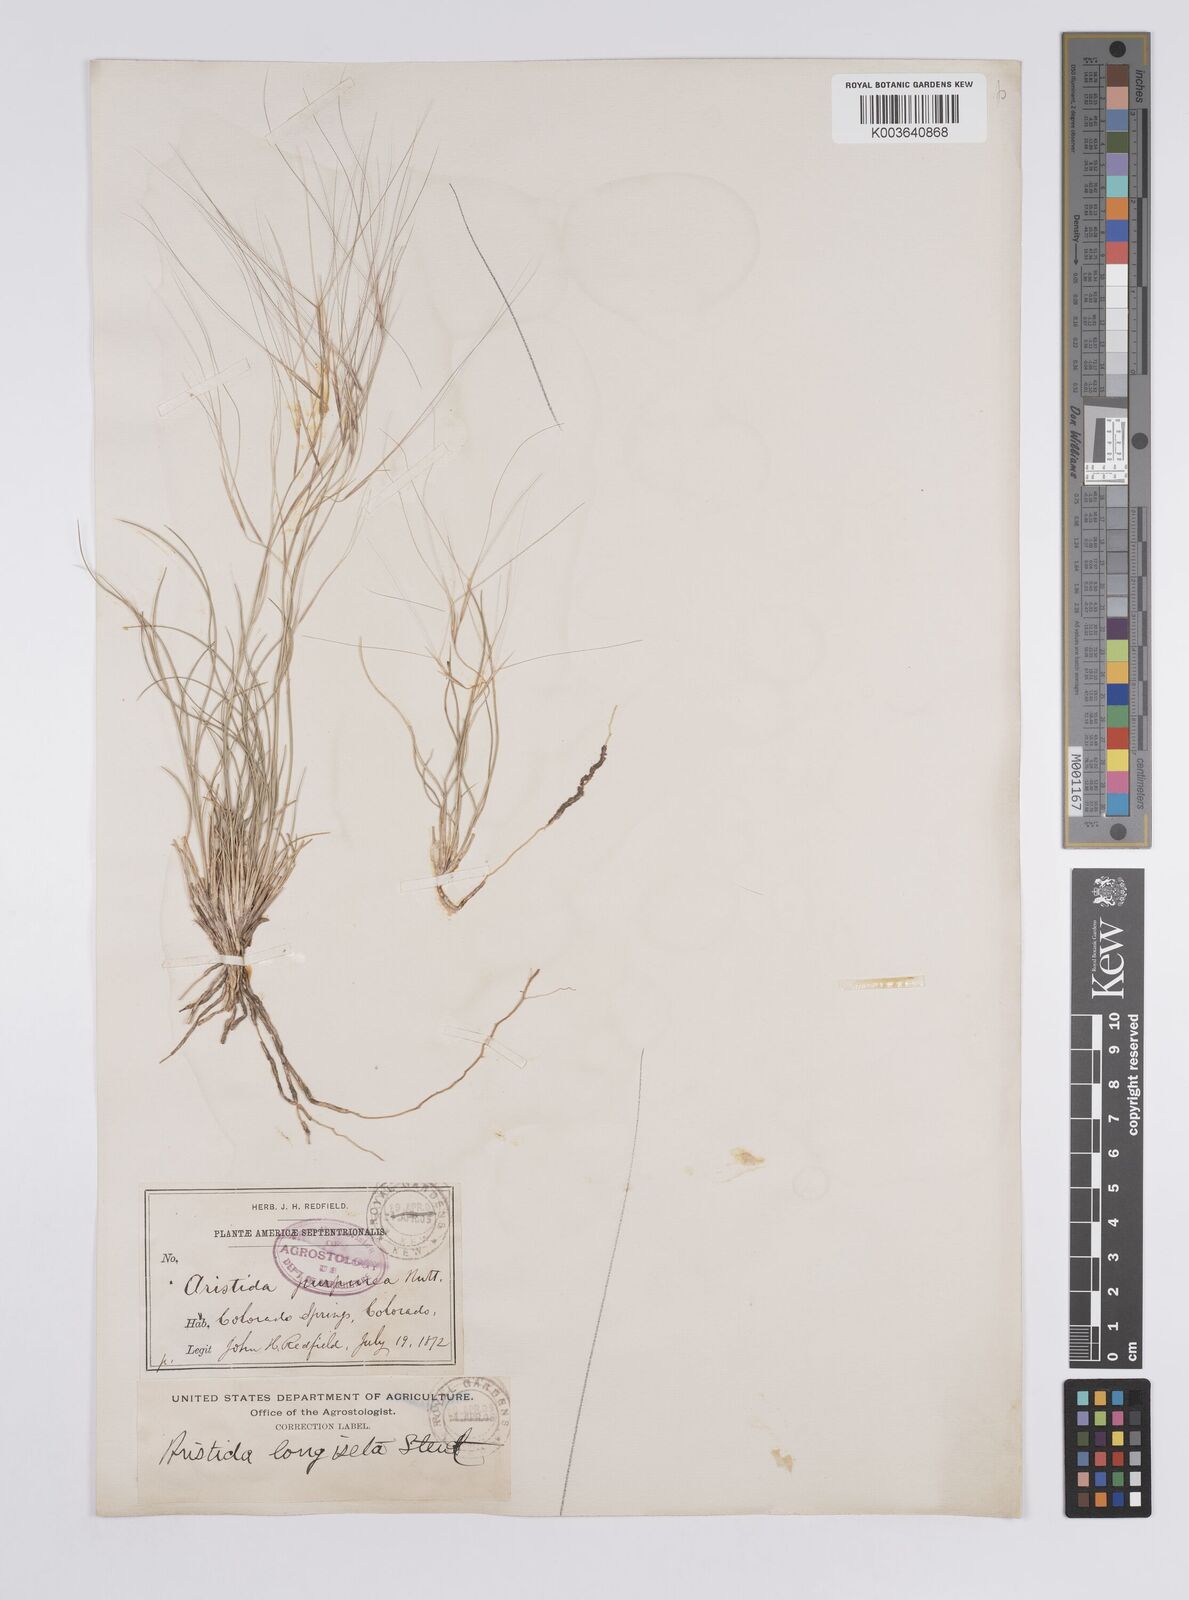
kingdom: Plantae
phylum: Tracheophyta
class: Liliopsida
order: Poales
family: Poaceae
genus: Aristida
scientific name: Aristida purpurea
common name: Purple threeawn
